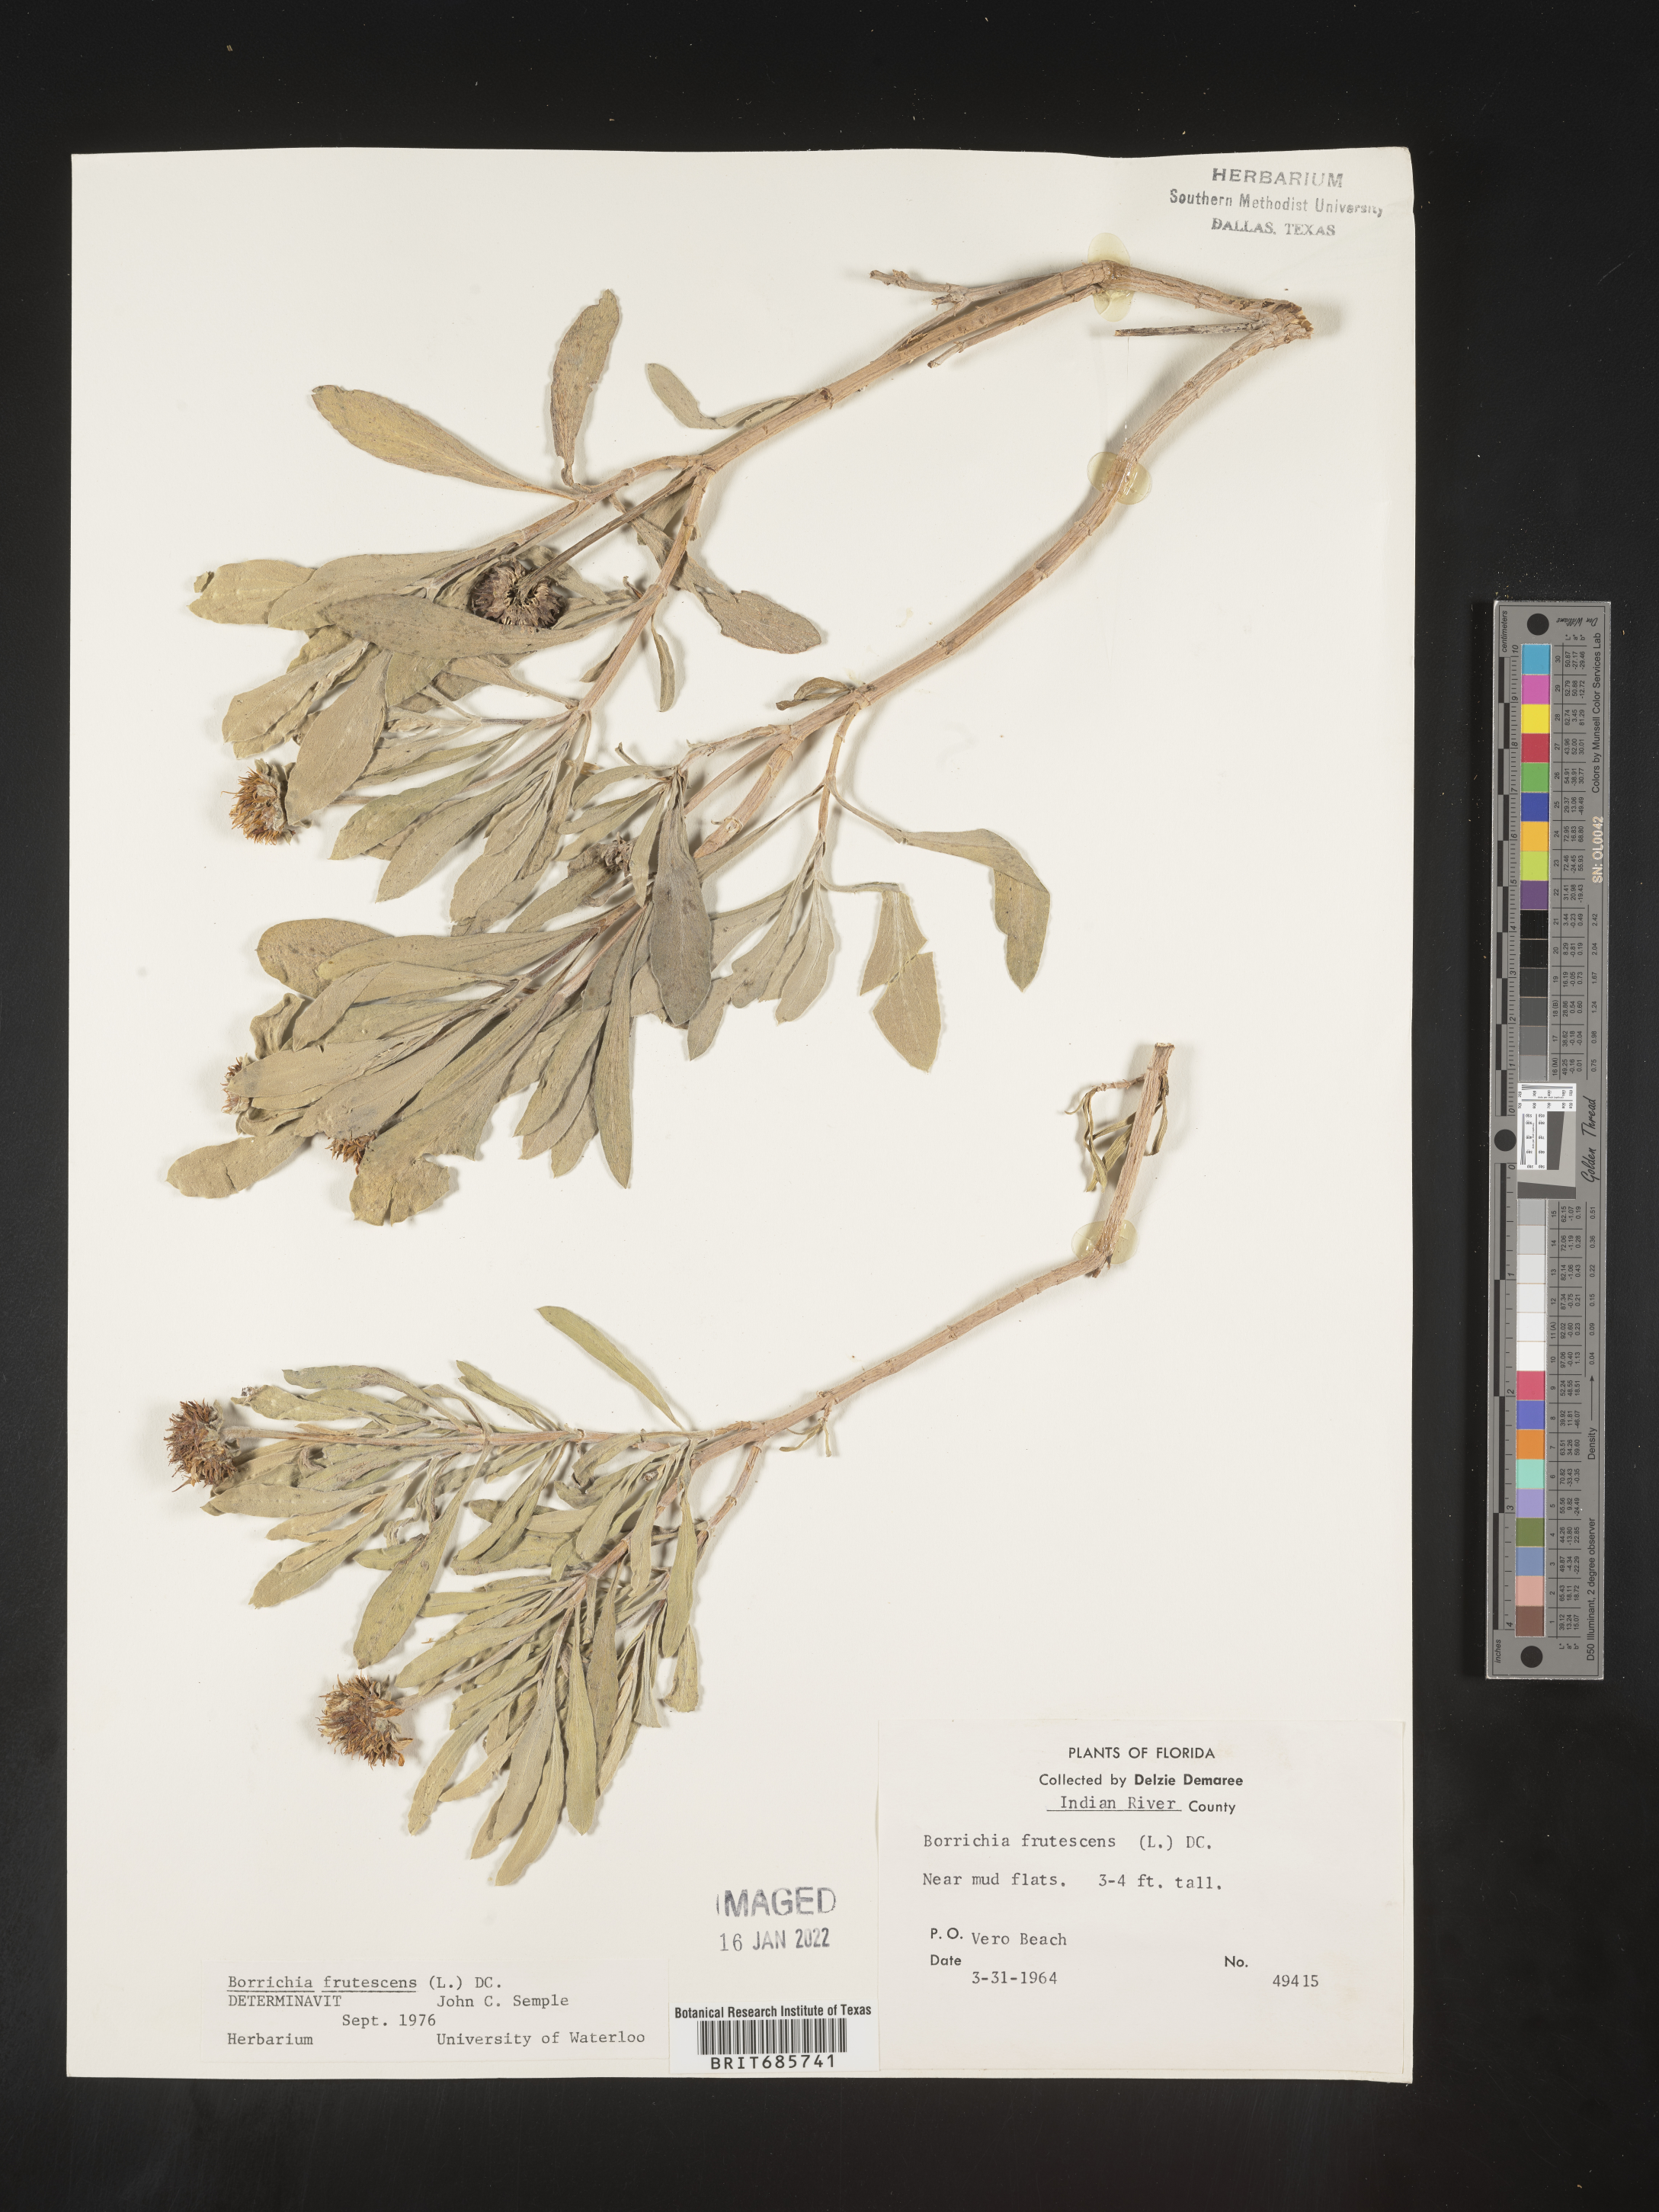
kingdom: Plantae
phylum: Tracheophyta
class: Magnoliopsida
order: Asterales
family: Asteraceae
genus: Borrichia
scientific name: Borrichia frutescens
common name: Sea oxeye
